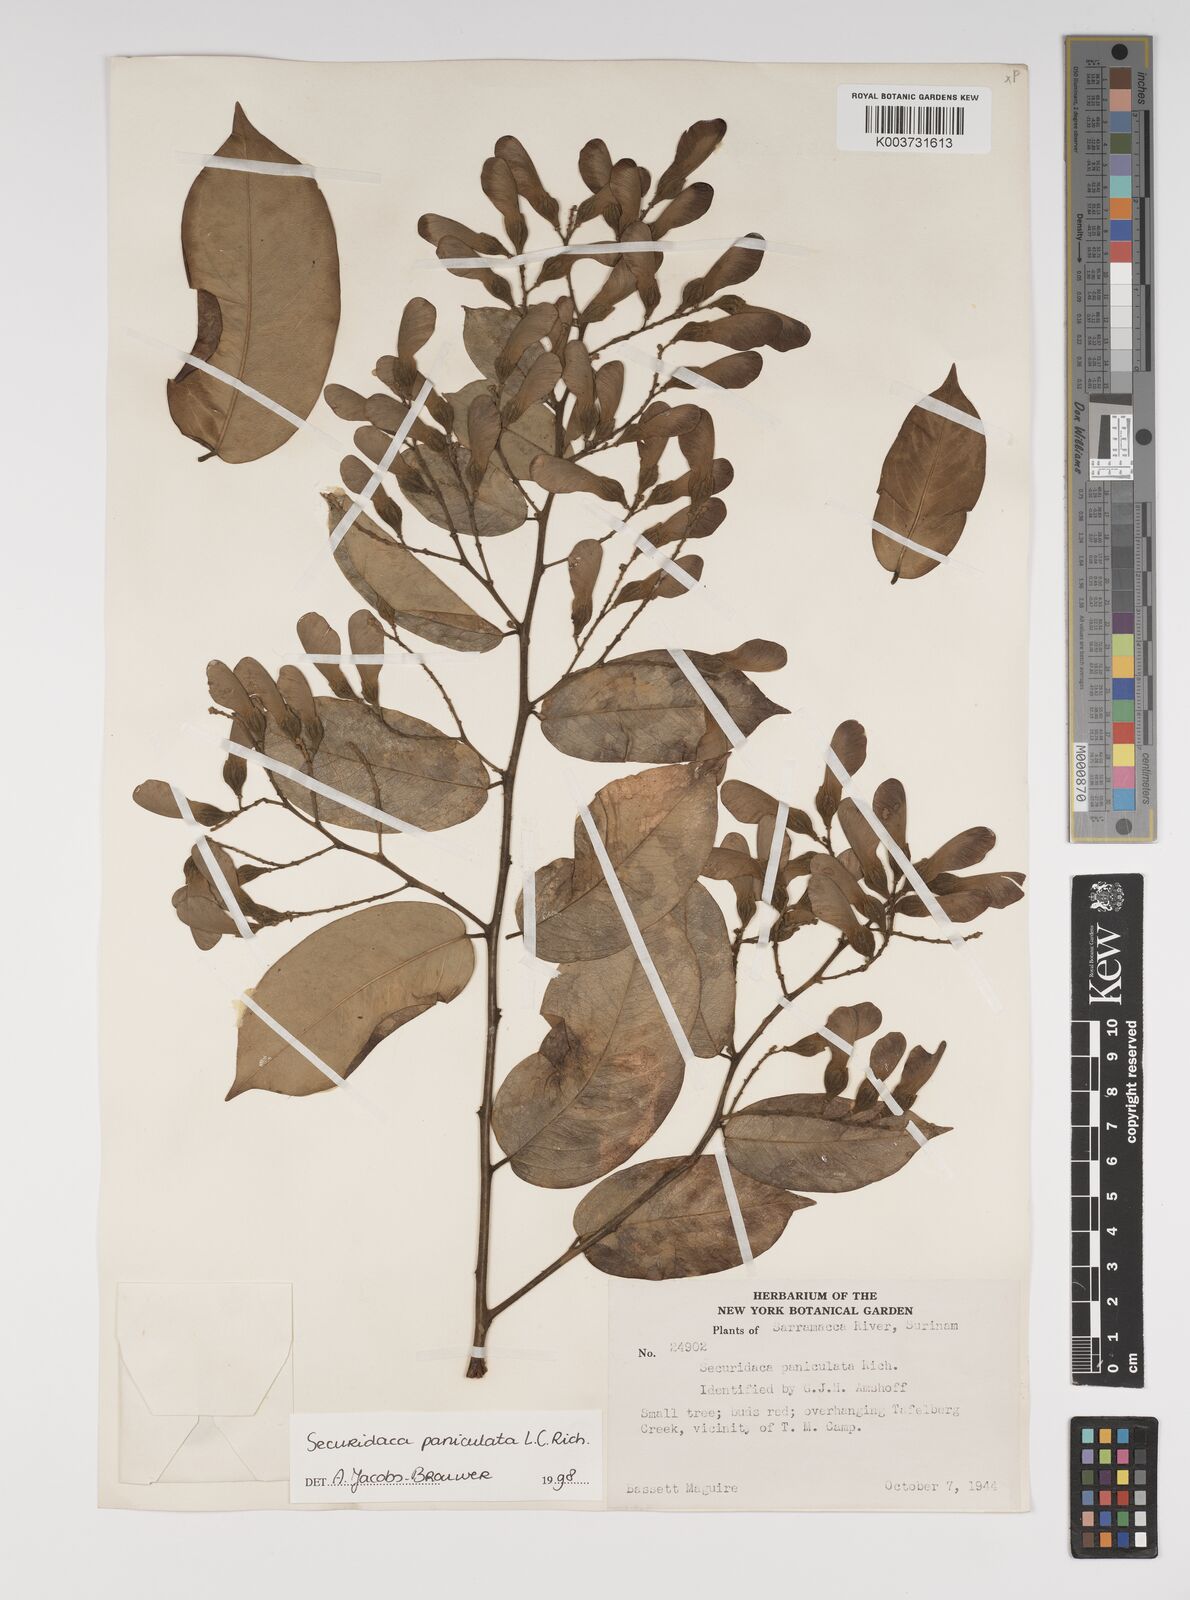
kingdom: Plantae
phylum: Tracheophyta
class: Magnoliopsida
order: Fabales
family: Polygalaceae
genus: Securidaca
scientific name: Securidaca paniculata
